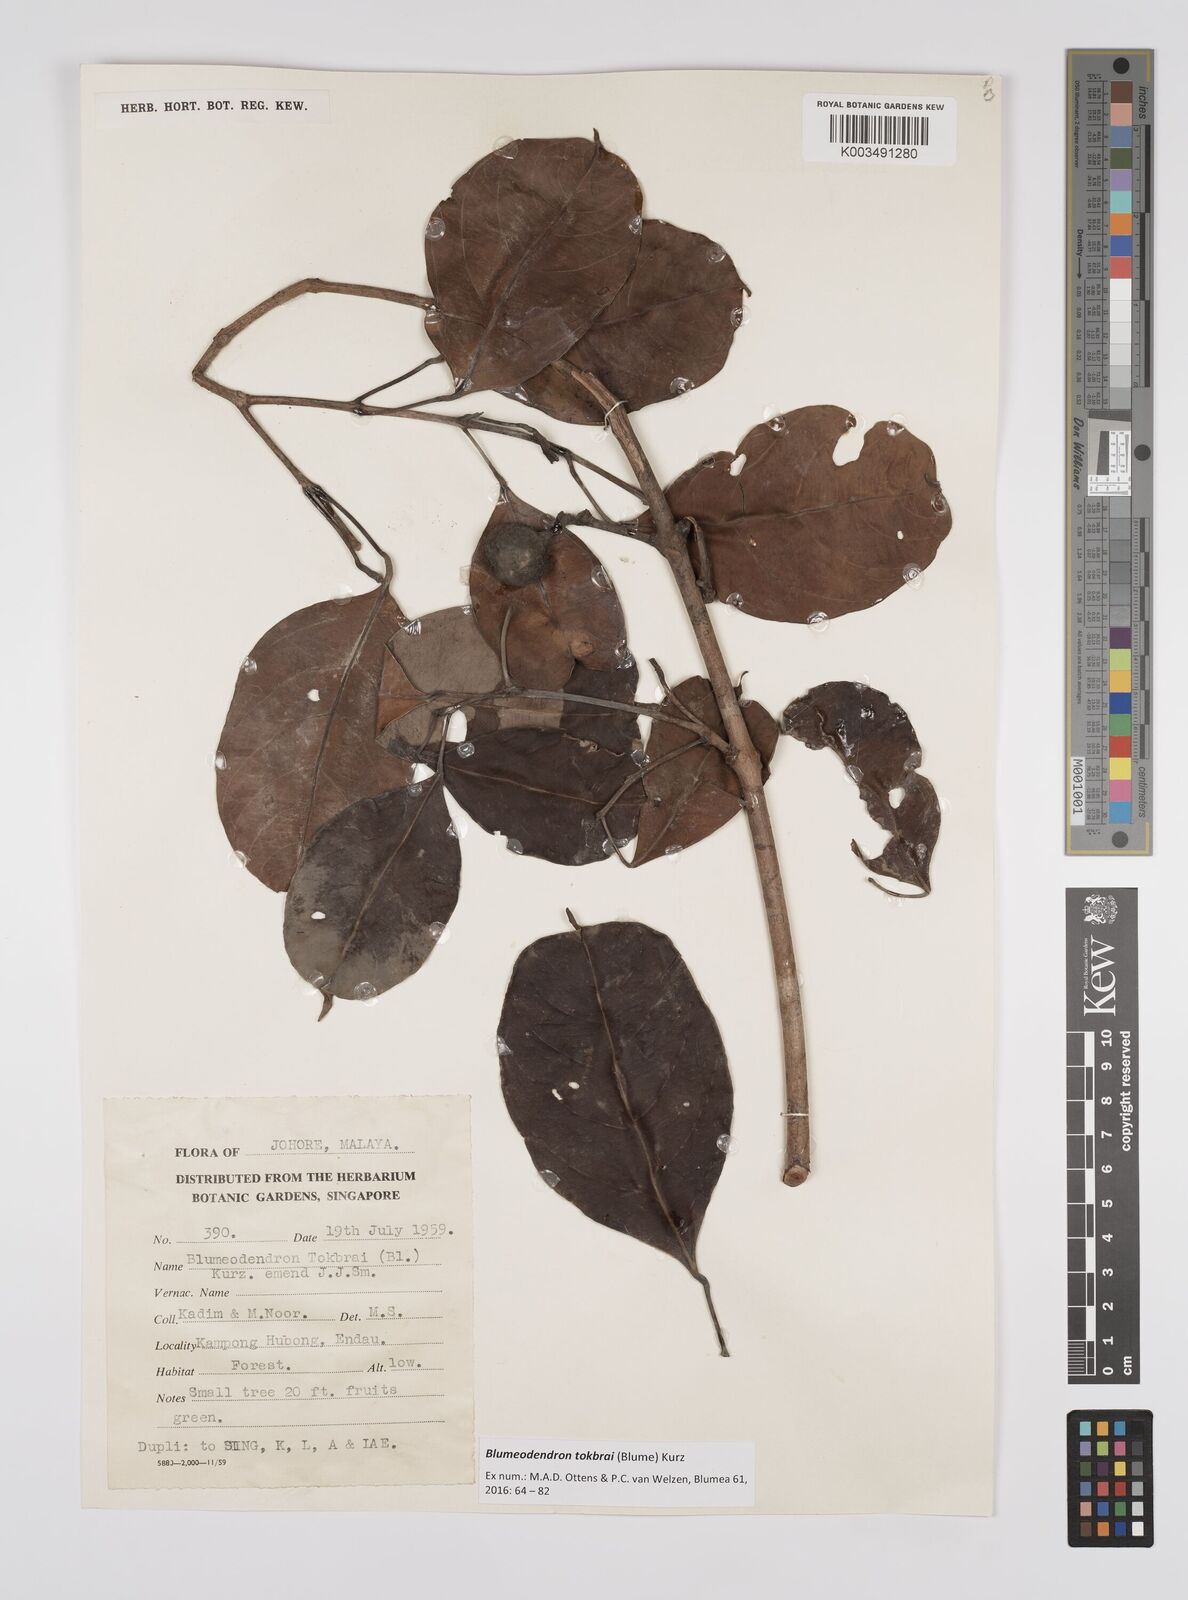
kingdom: Plantae
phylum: Tracheophyta
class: Magnoliopsida
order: Malpighiales
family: Euphorbiaceae
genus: Blumeodendron
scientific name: Blumeodendron tokbrai
